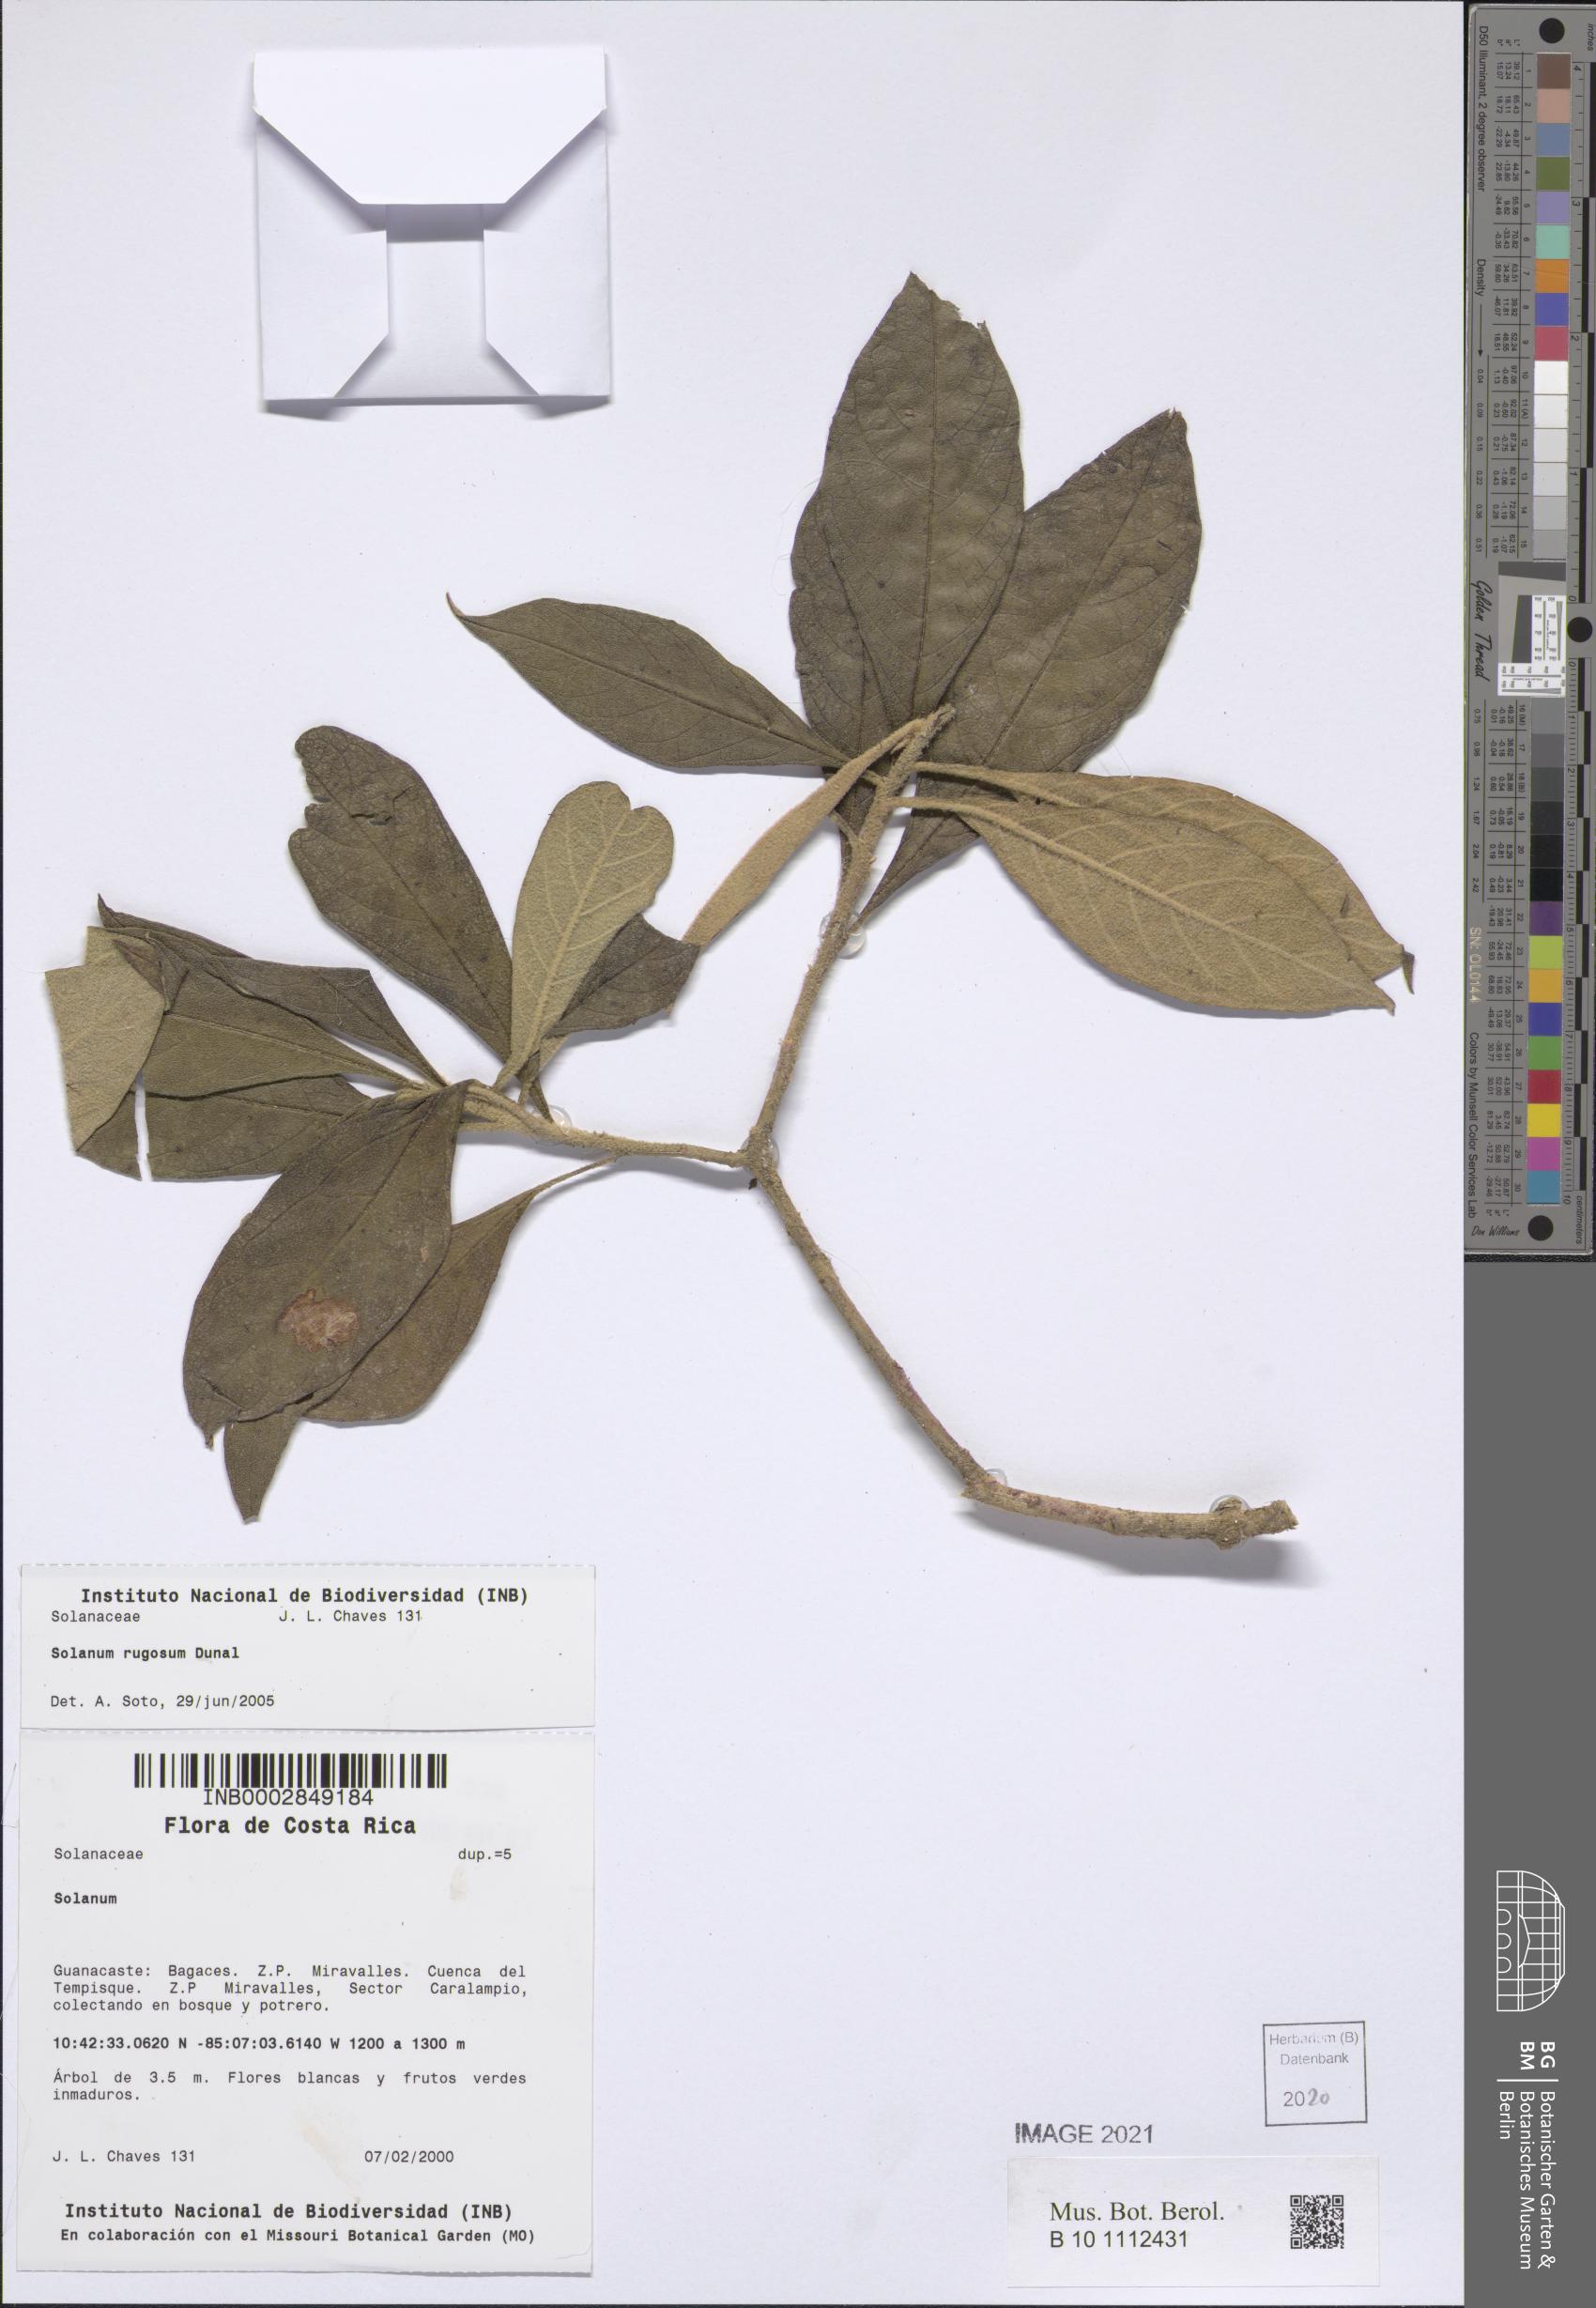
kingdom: Plantae
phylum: Tracheophyta
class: Magnoliopsida
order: Solanales
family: Solanaceae
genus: Solanum
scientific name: Solanum rugosum
